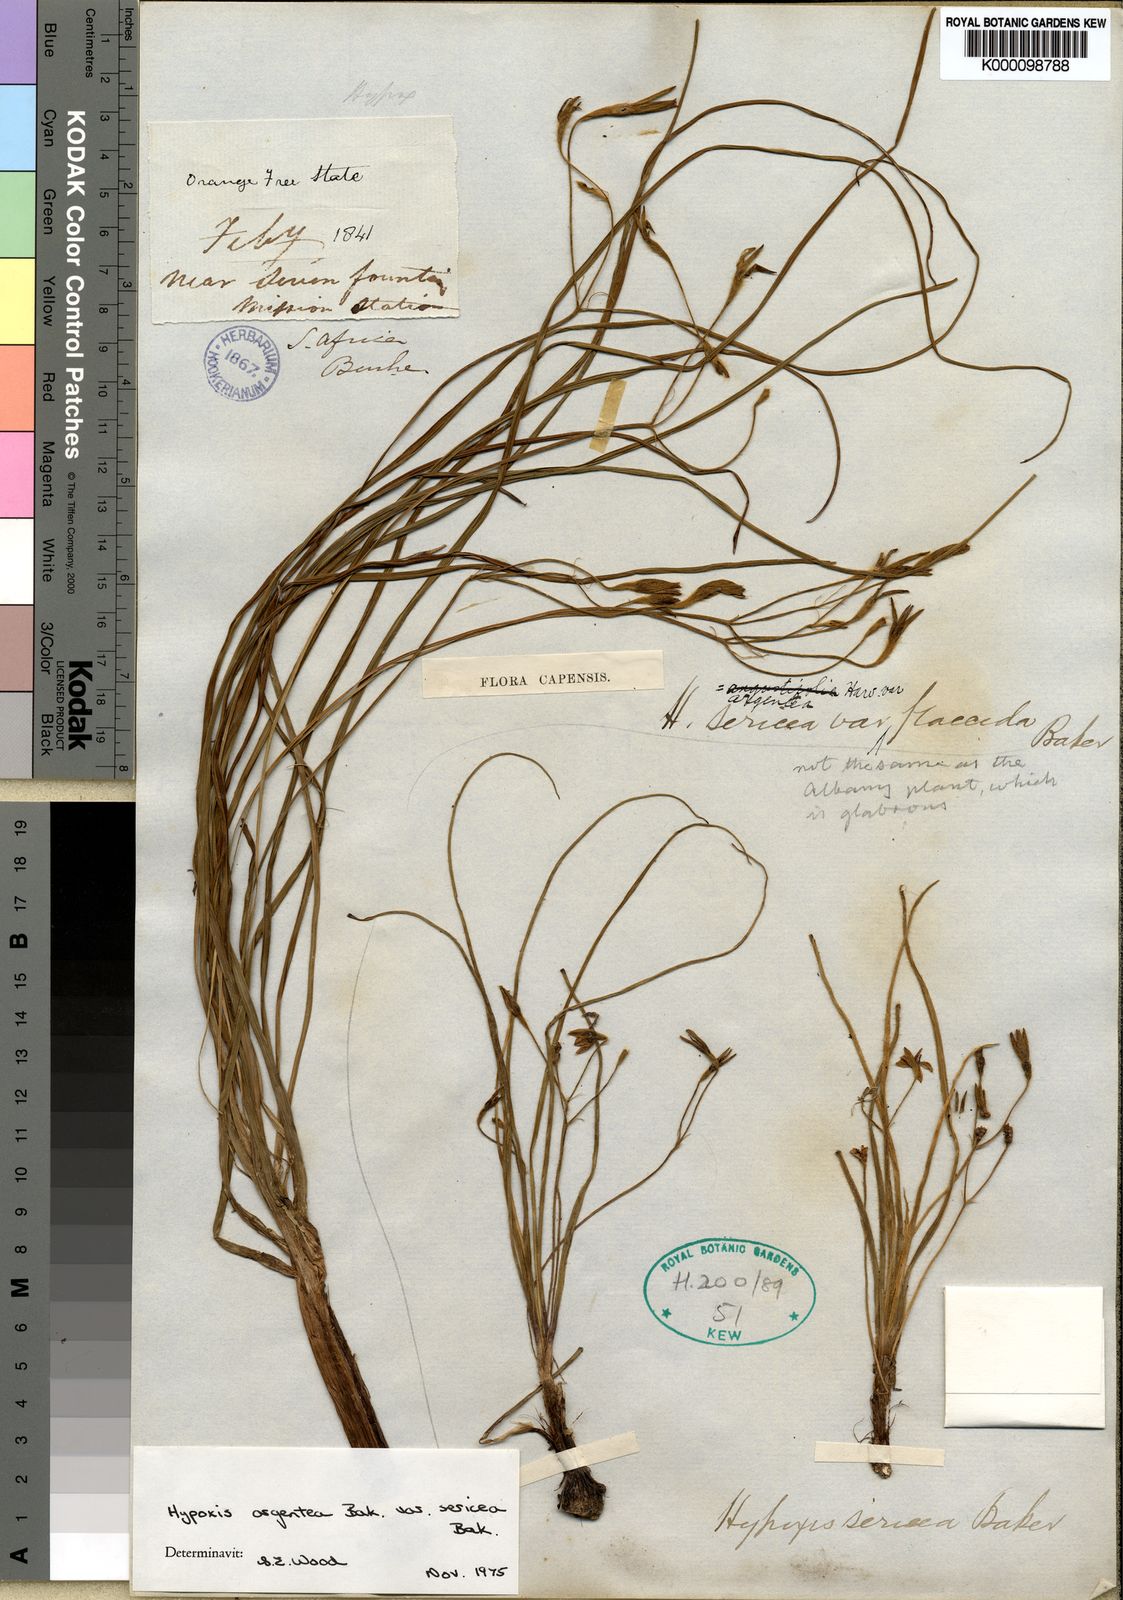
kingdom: Plantae
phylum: Tracheophyta
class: Liliopsida
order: Asparagales
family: Hypoxidaceae
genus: Hypoxis
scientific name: Hypoxis argentea
